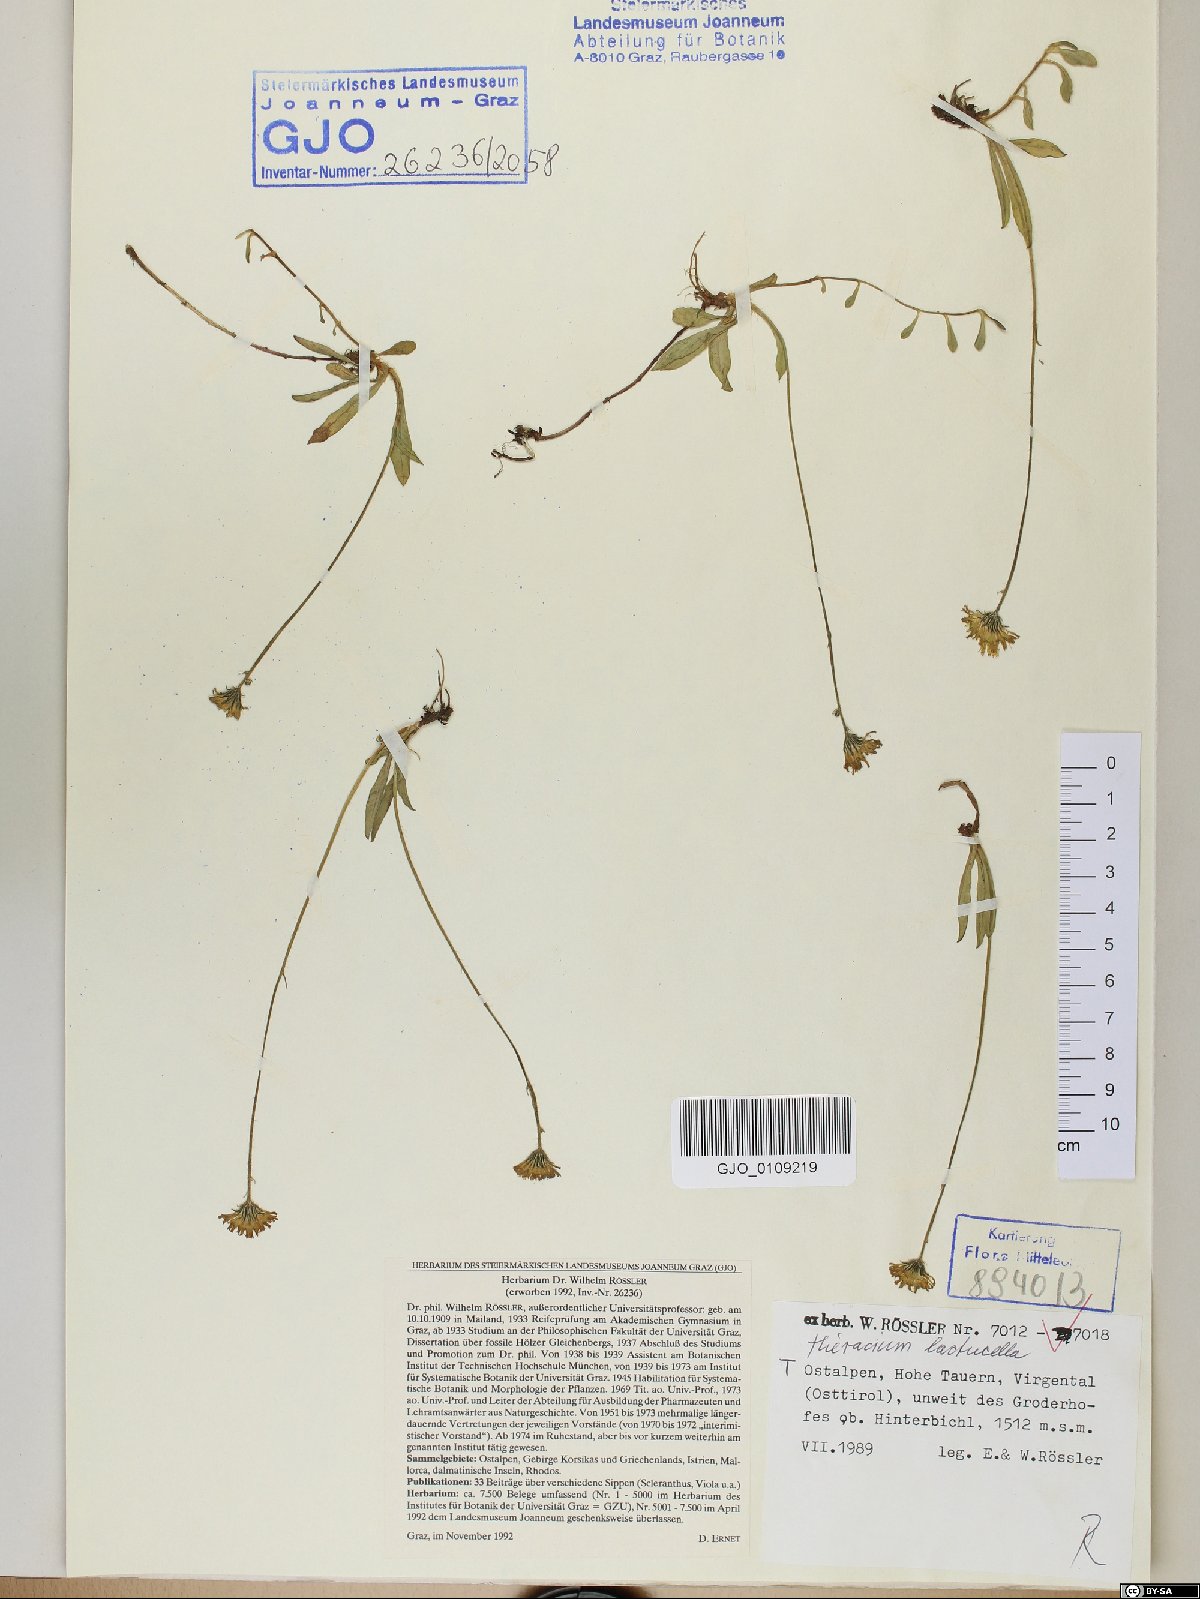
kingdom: Plantae
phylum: Tracheophyta
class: Magnoliopsida
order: Asterales
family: Asteraceae
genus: Pilosella
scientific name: Pilosella lactucella
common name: Glaucous fox-and-cubs
